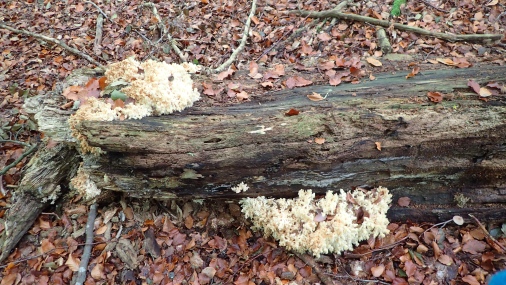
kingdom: Fungi
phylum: Basidiomycota
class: Agaricomycetes
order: Russulales
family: Hericiaceae
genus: Hericium
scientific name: Hericium coralloides
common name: koralpigsvamp
